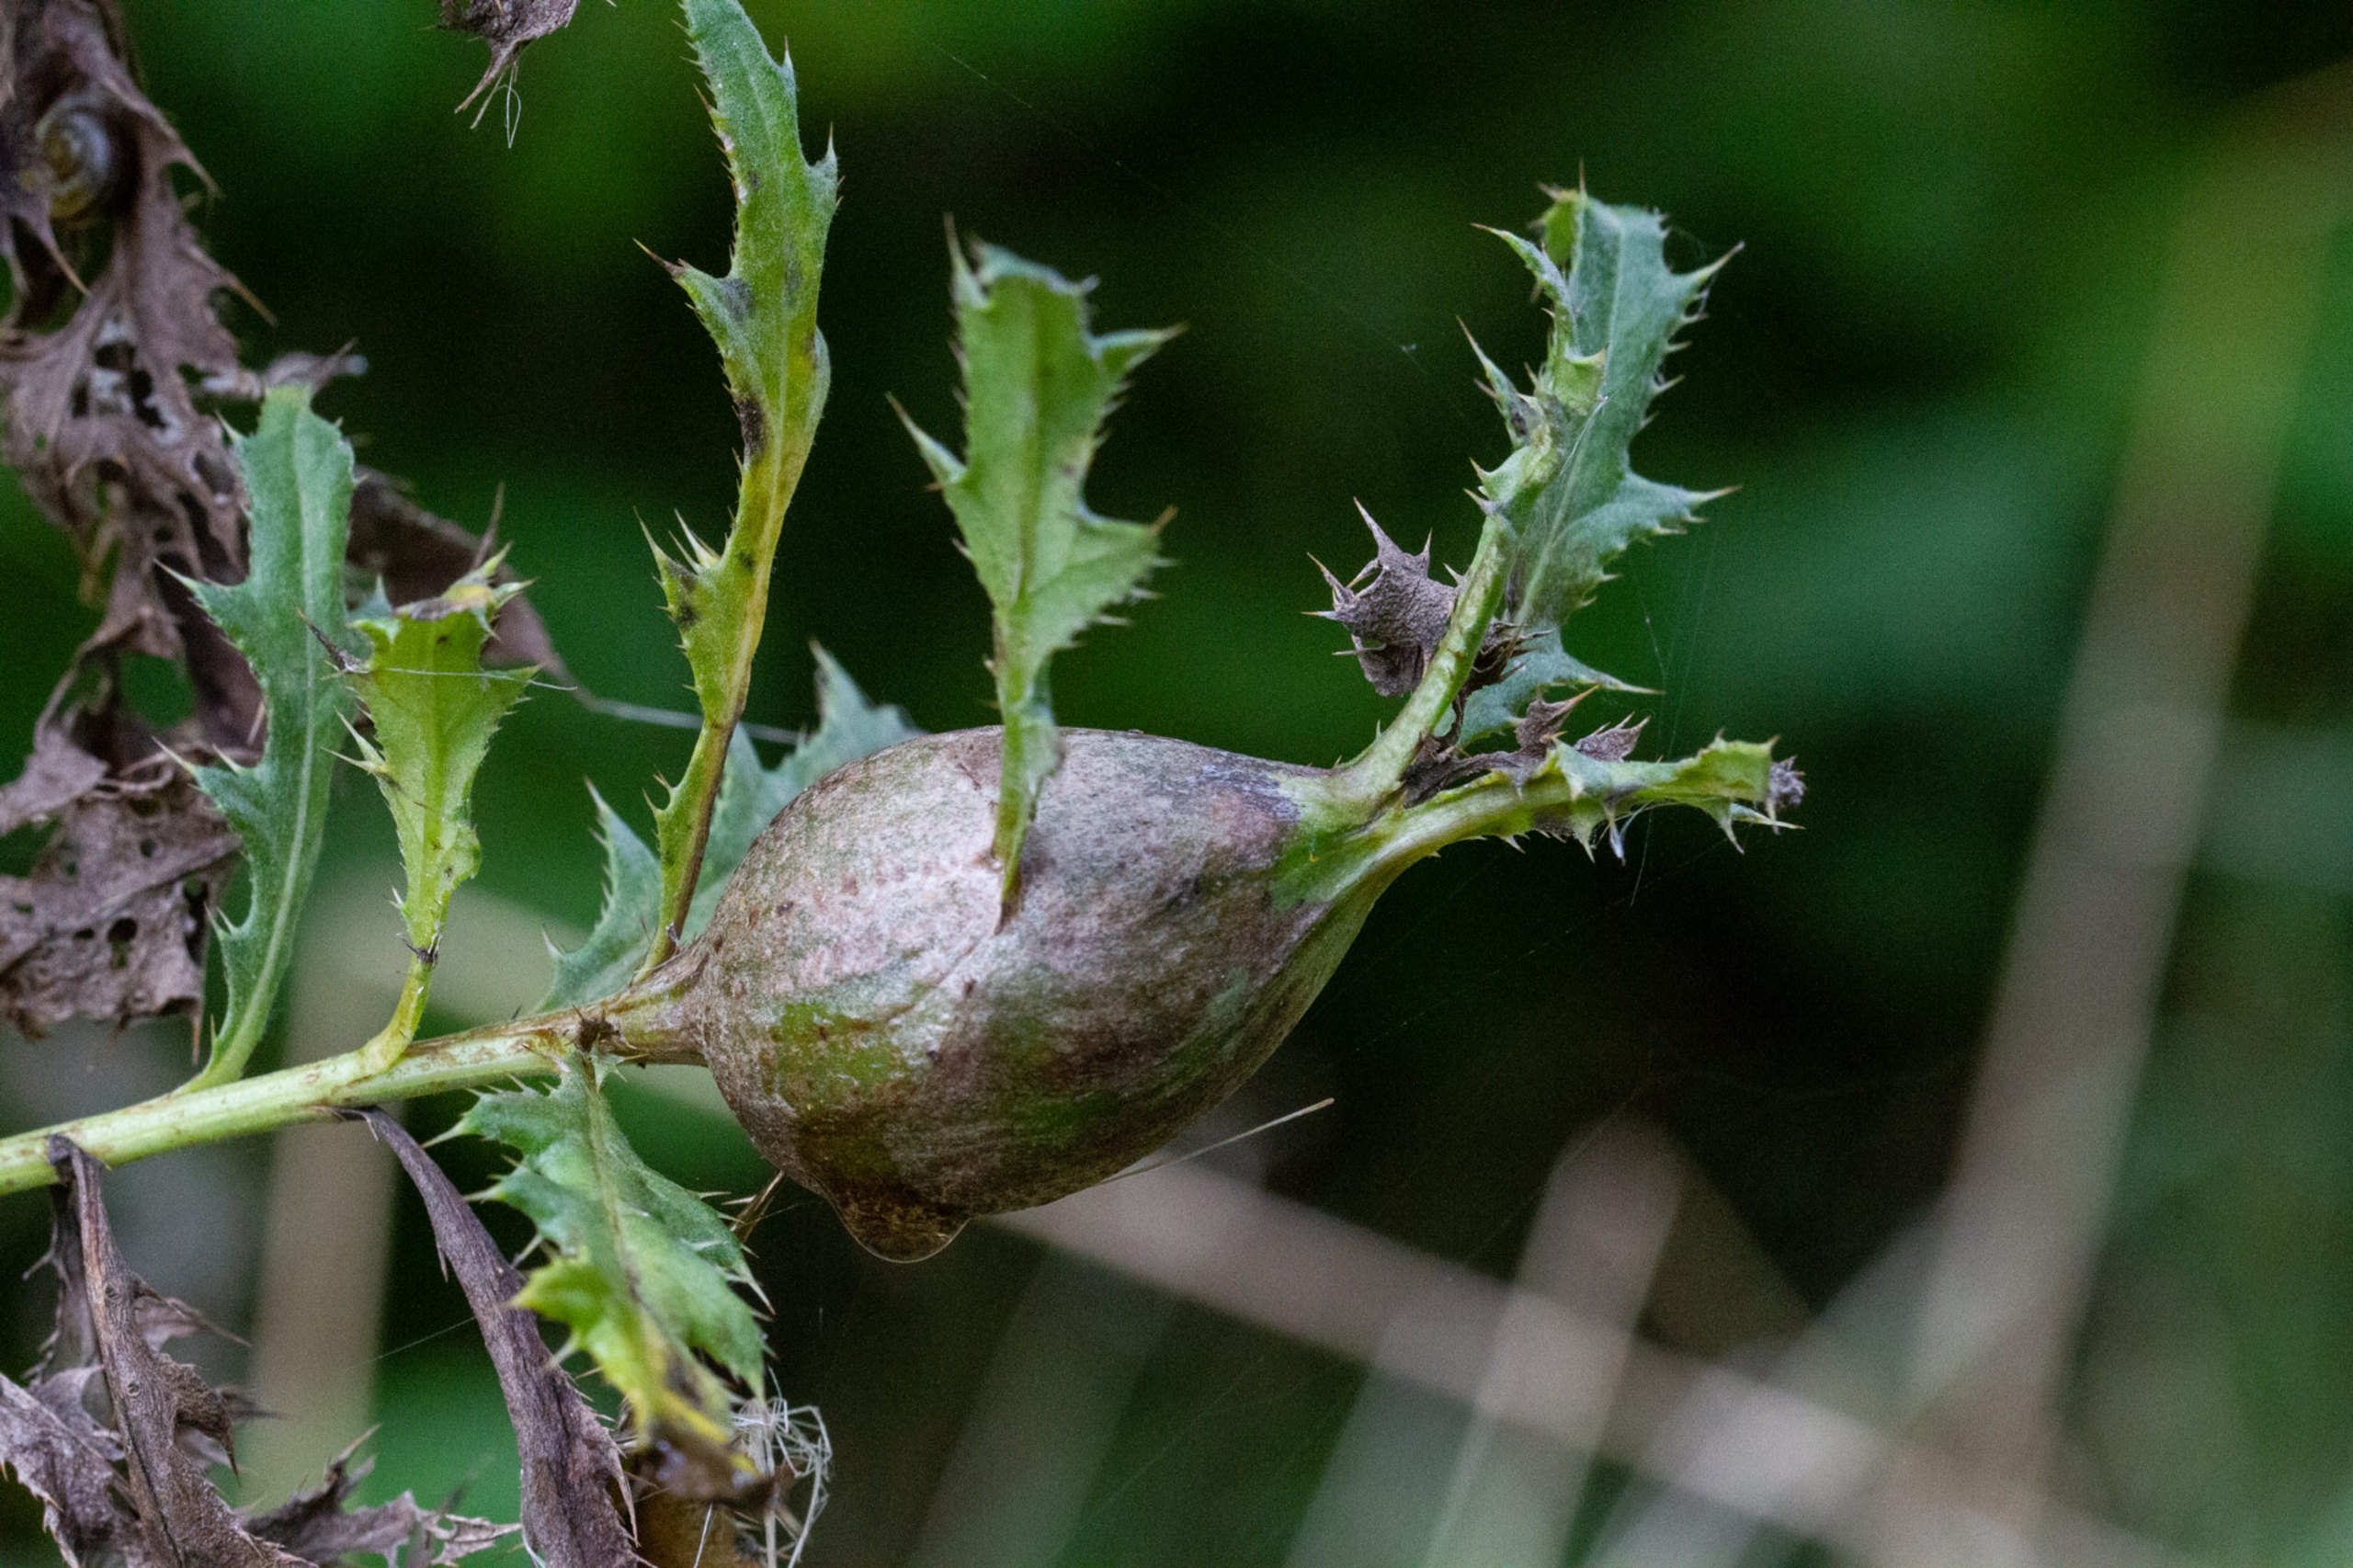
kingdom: Animalia
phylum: Arthropoda
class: Insecta
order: Diptera
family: Tephritidae
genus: Urophora
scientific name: Urophora cardui
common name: Tidselbåndflue
